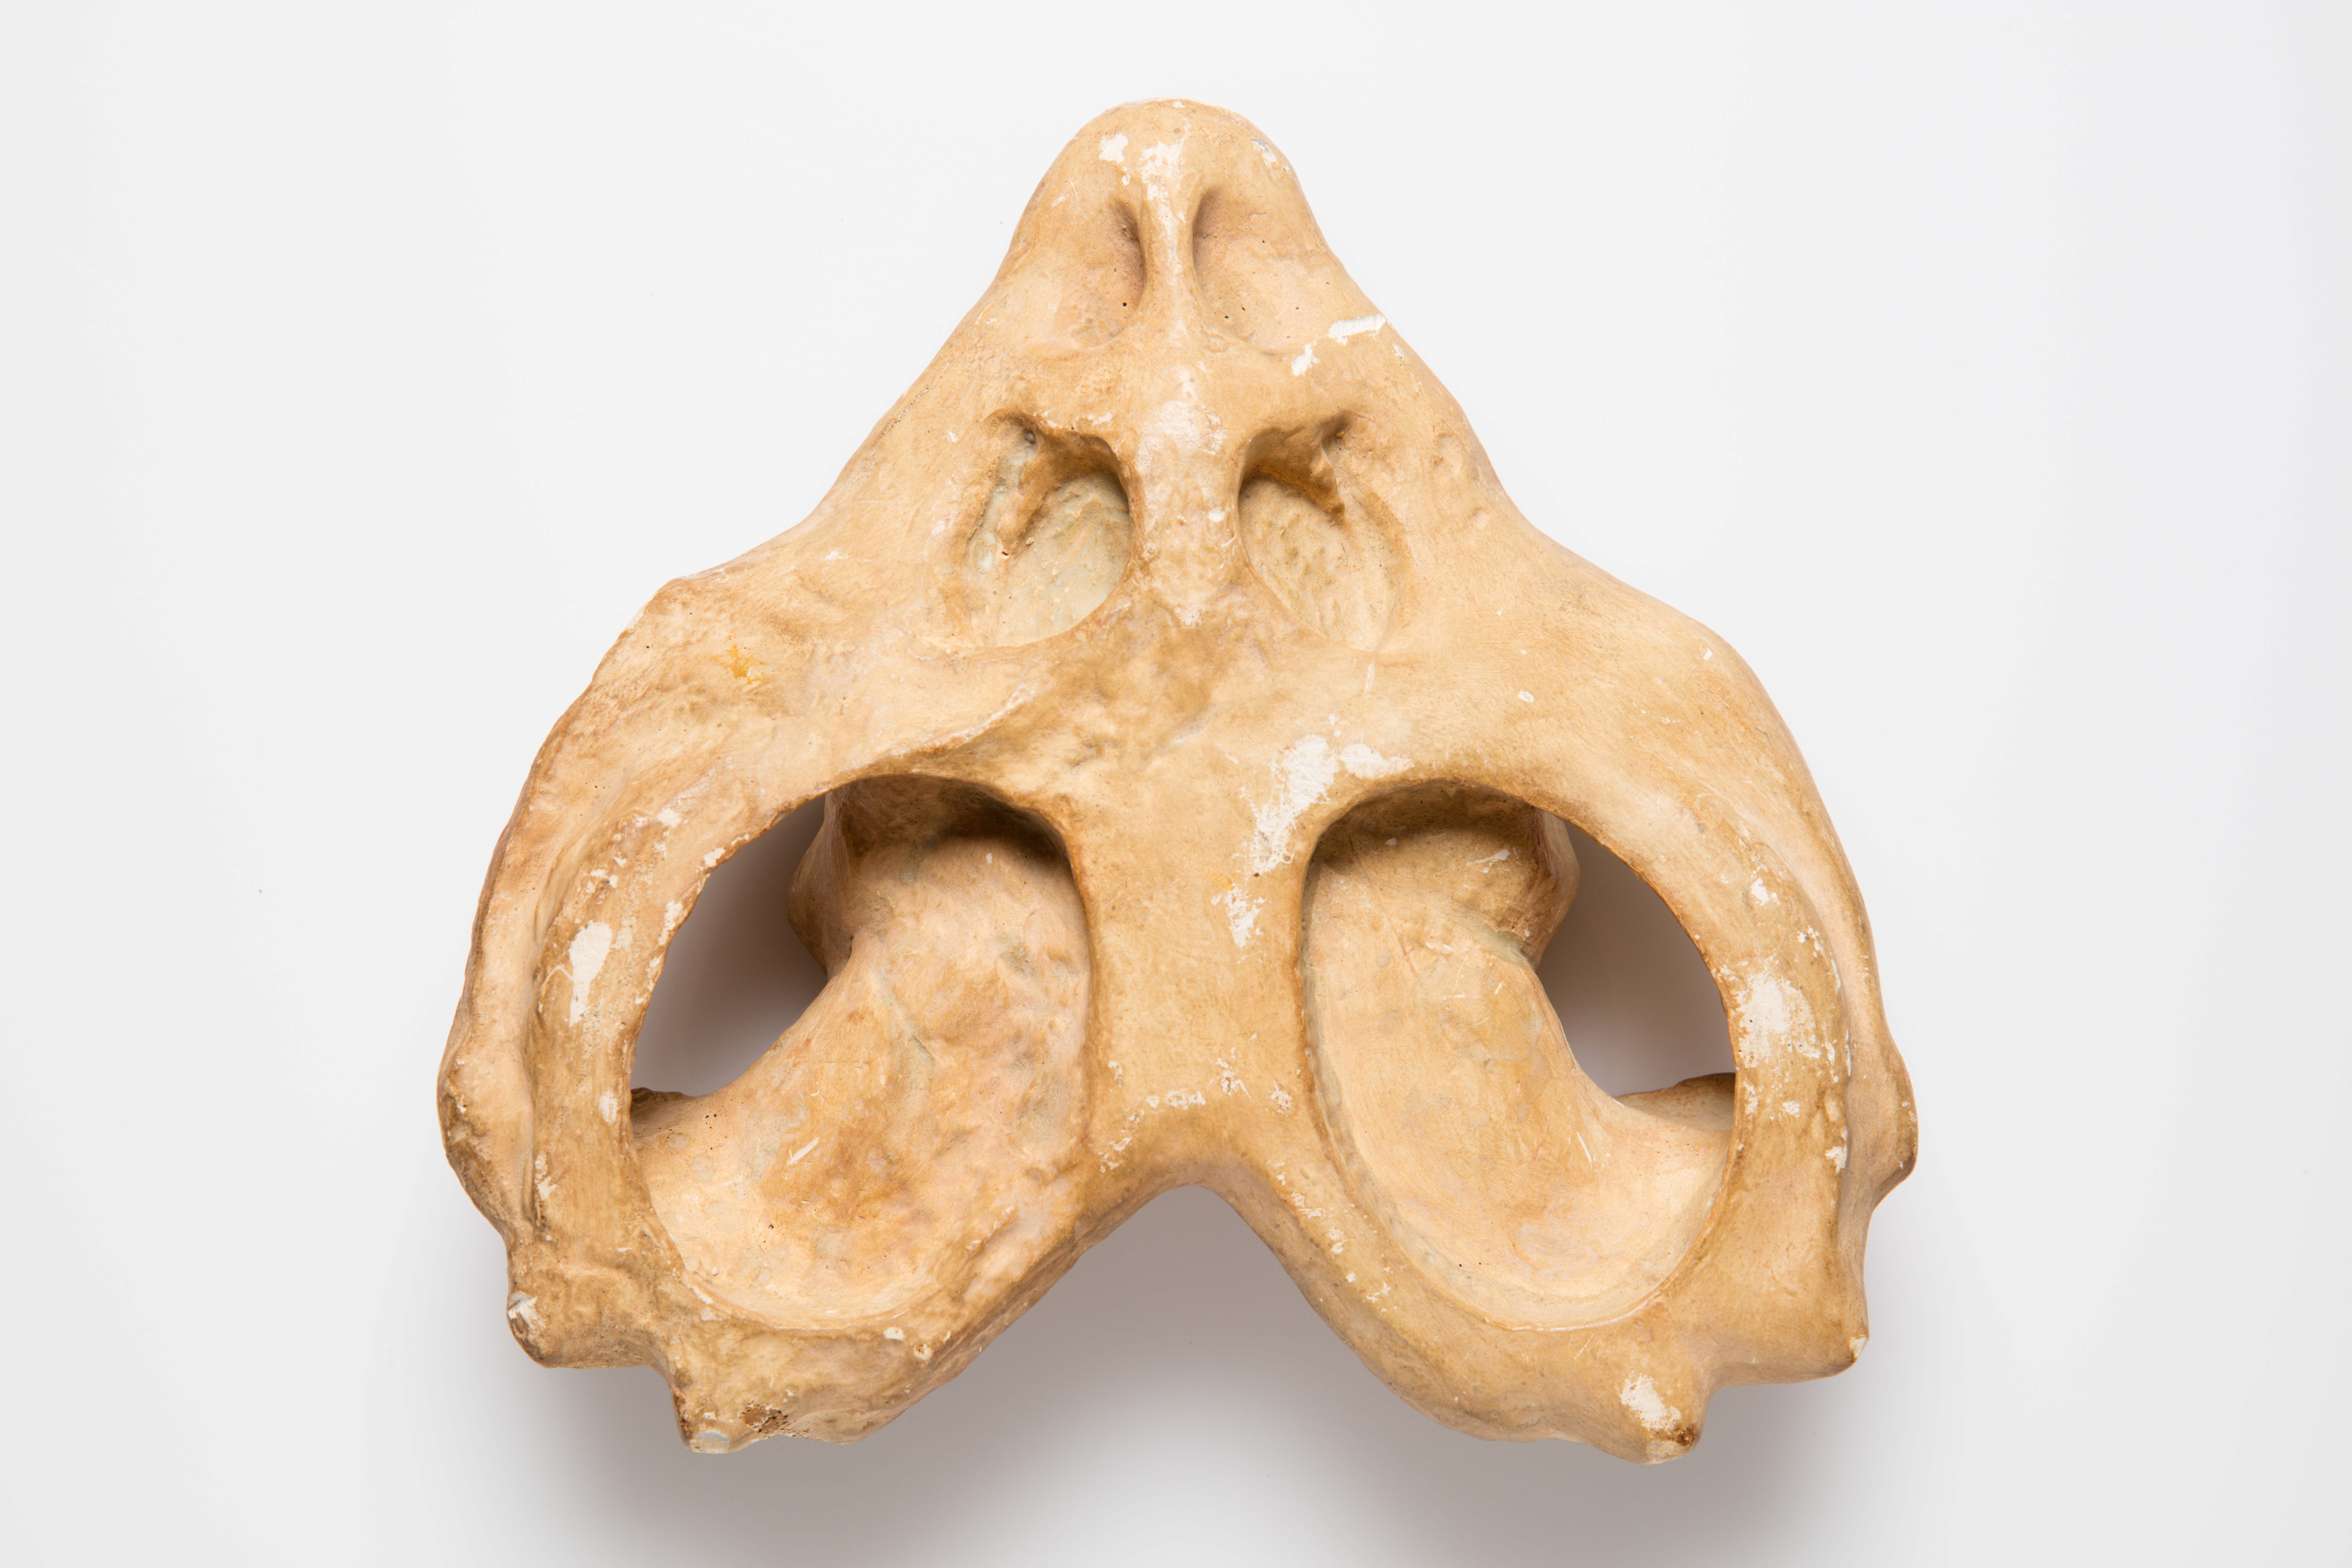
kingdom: Animalia
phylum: Chordata
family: Cyamodontidae
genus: Cyamodus
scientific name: Cyamodus Placodus muensteri
